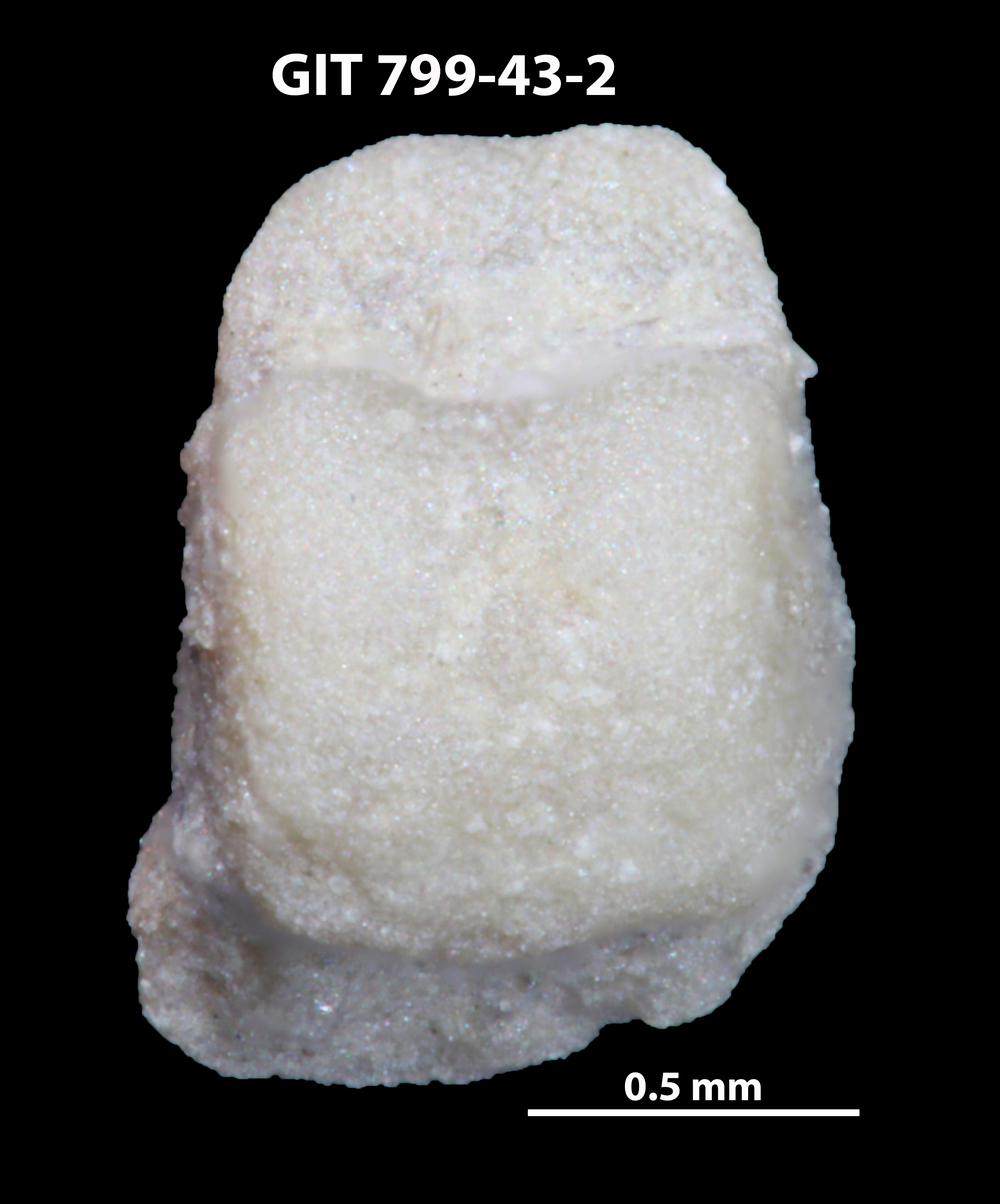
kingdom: Animalia
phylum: Echinodermata
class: Crinoidea
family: Cyclocystoididae
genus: Polytryphocycloides
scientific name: Polytryphocycloides
